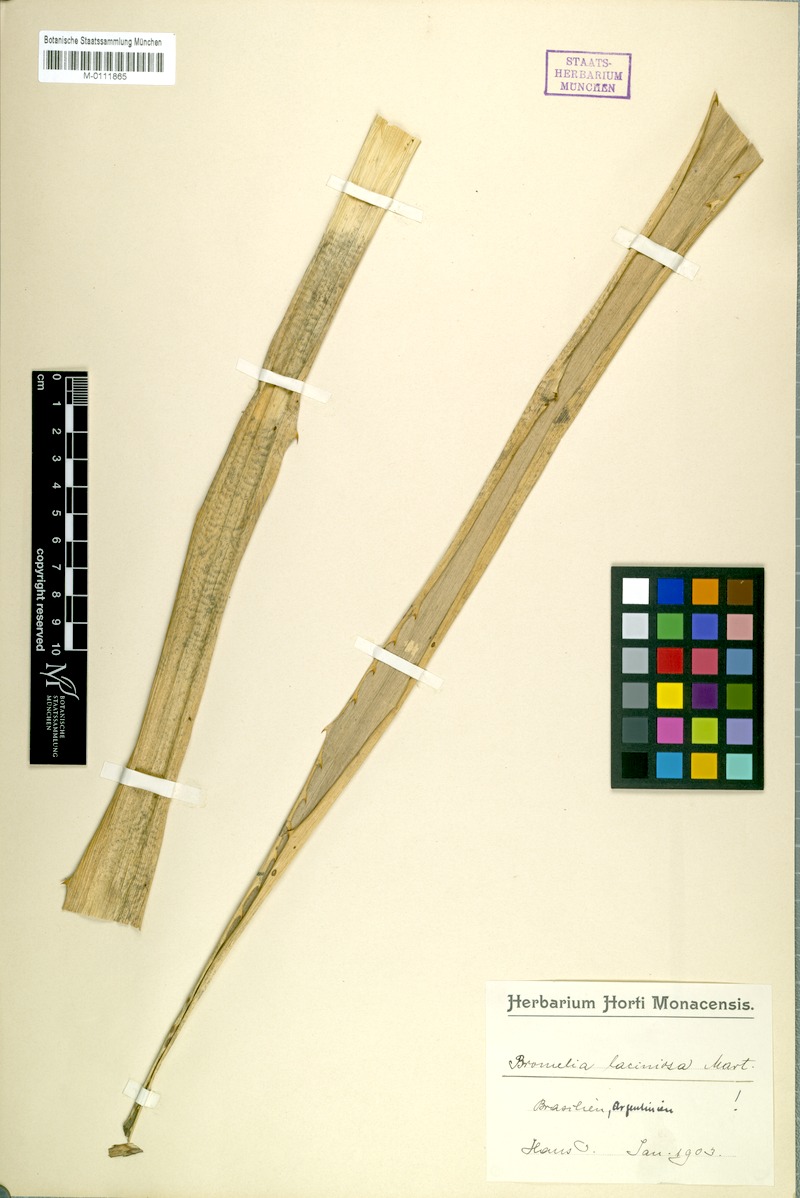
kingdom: Plantae
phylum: Tracheophyta
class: Liliopsida
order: Poales
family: Bromeliaceae
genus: Bromelia
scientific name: Bromelia laciniosa
